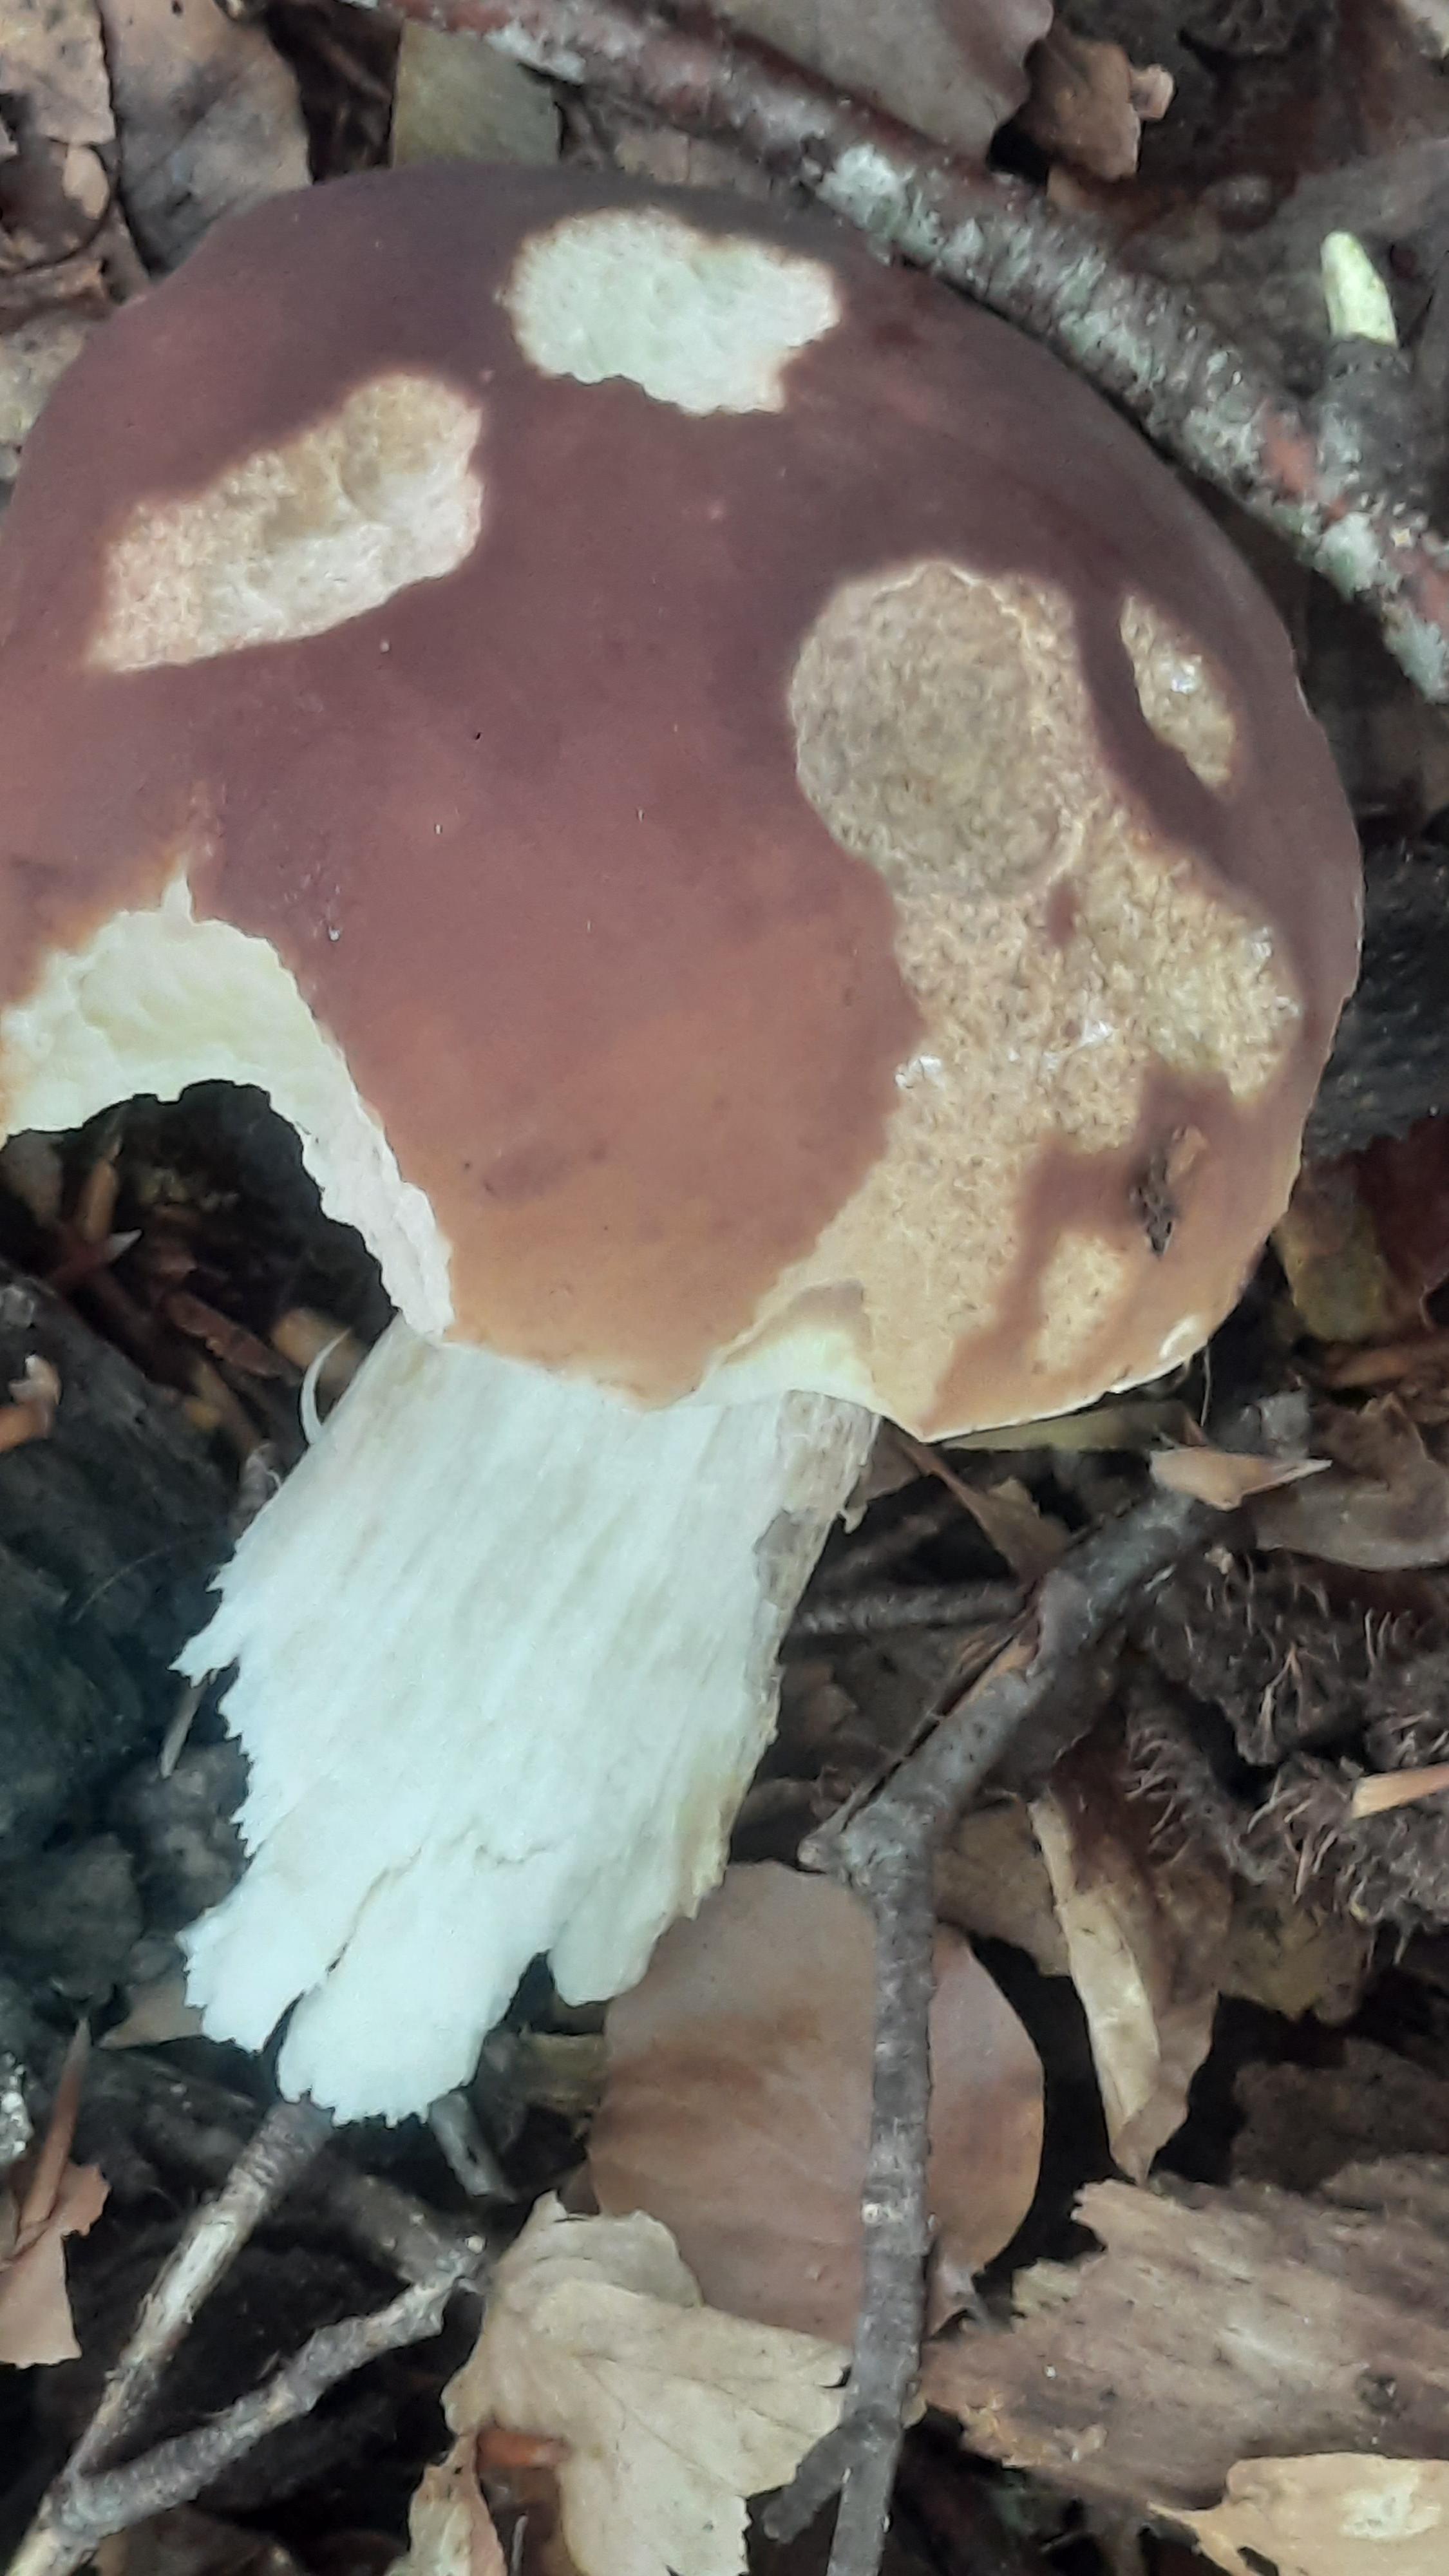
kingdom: Fungi
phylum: Basidiomycota
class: Agaricomycetes
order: Boletales
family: Boletaceae
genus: Boletus
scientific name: Boletus edulis
